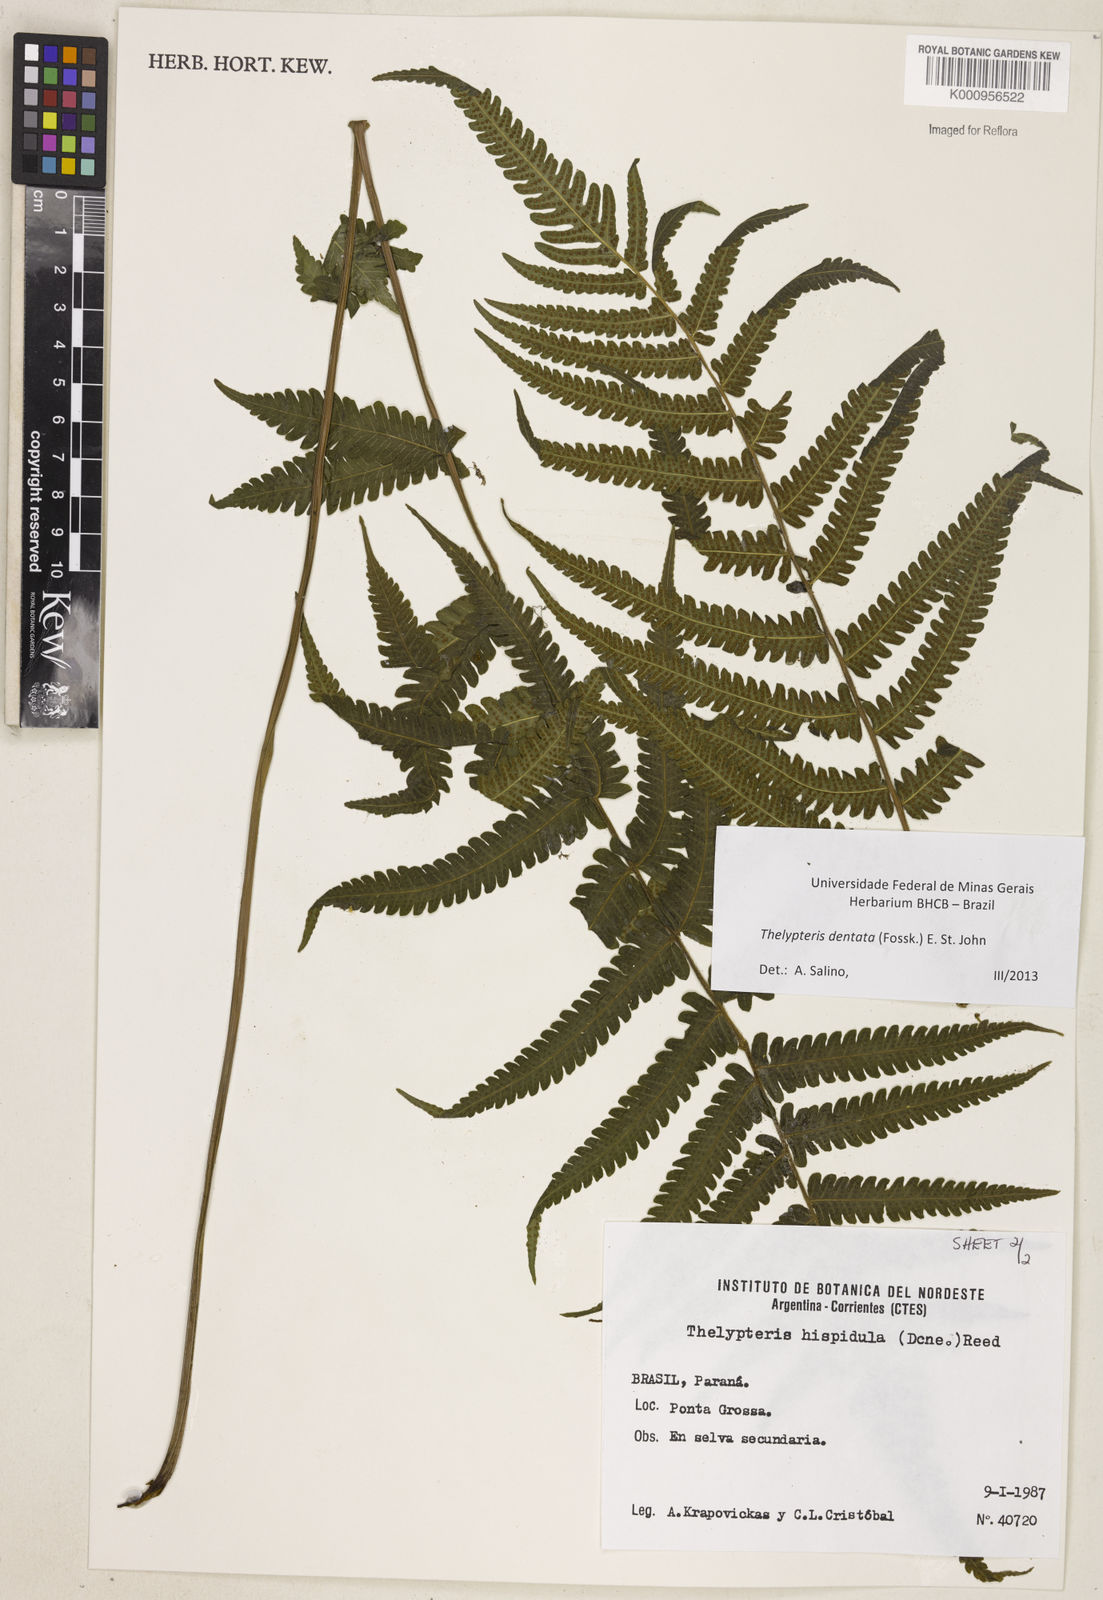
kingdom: Plantae
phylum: Tracheophyta
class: Polypodiopsida
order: Polypodiales
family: Thelypteridaceae
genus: Christella
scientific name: Christella dentata
